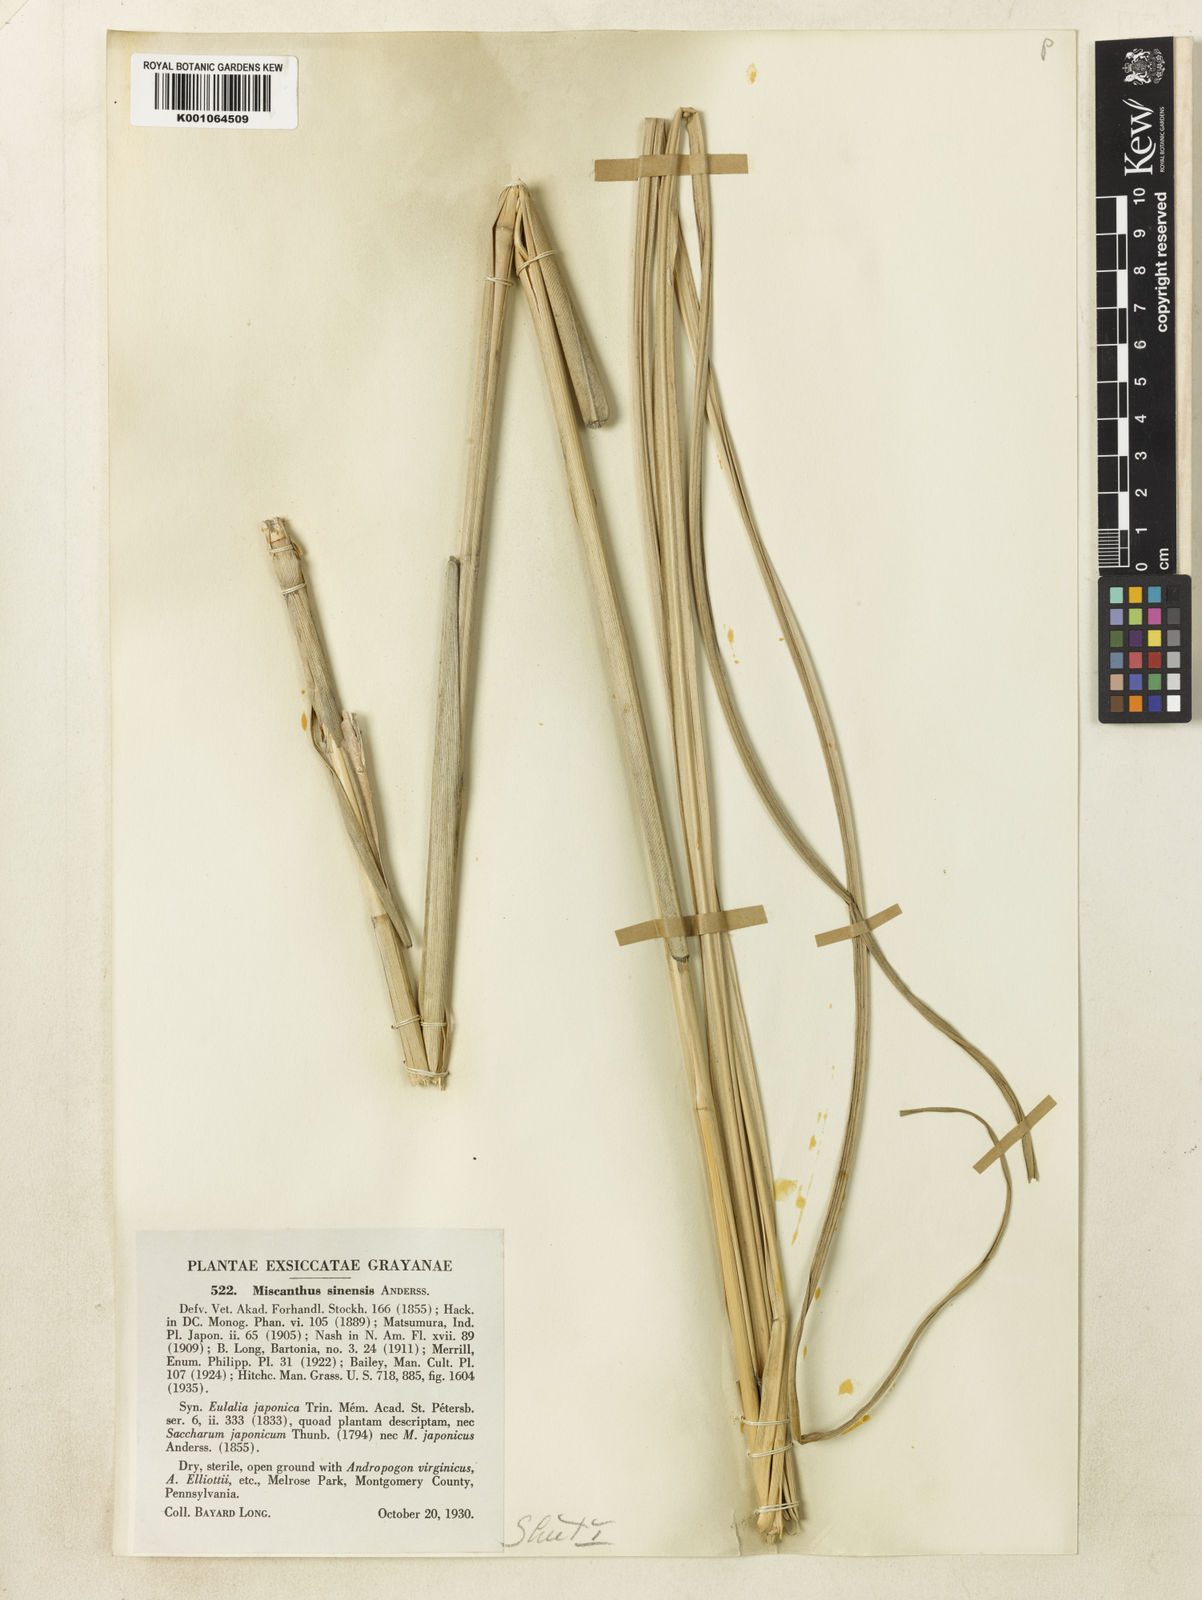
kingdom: Plantae
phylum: Tracheophyta
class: Liliopsida
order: Poales
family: Poaceae
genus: Miscanthus
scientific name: Miscanthus sinensis
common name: Chinese silvergrass
